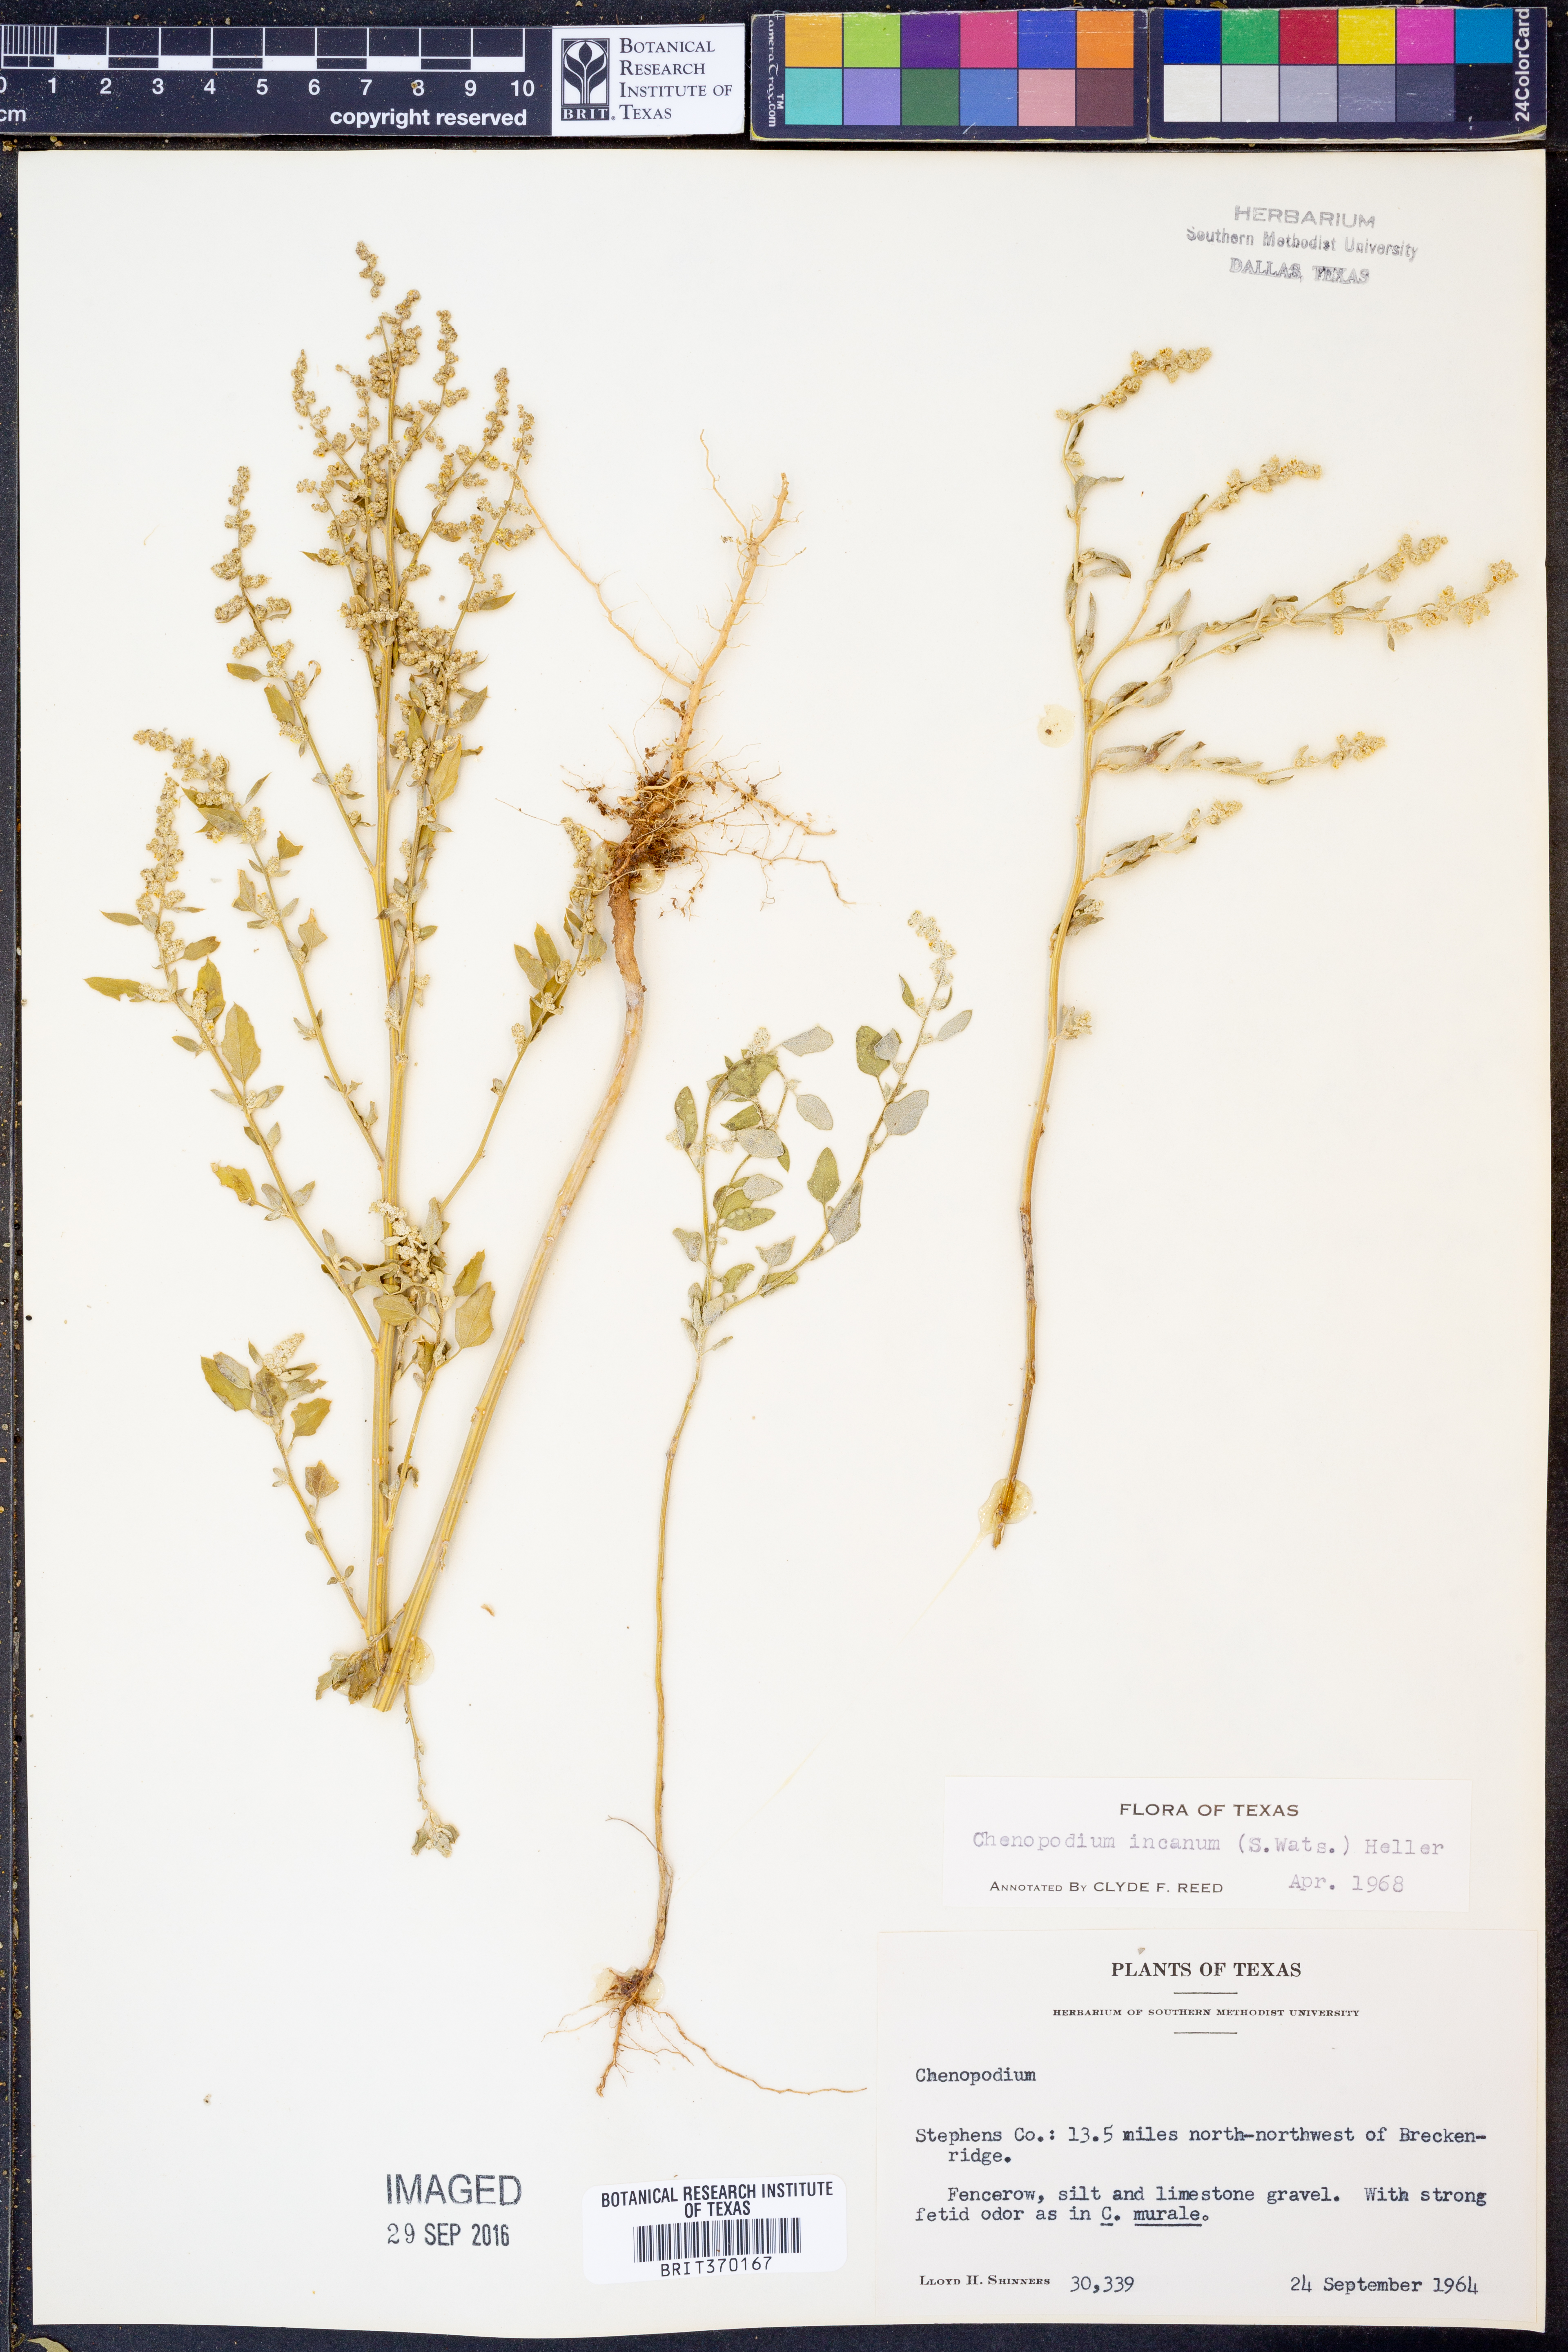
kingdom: Plantae
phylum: Tracheophyta
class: Magnoliopsida
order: Caryophyllales
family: Amaranthaceae
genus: Chenopodium
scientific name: Chenopodium incanum
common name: Hoary goosefoot
